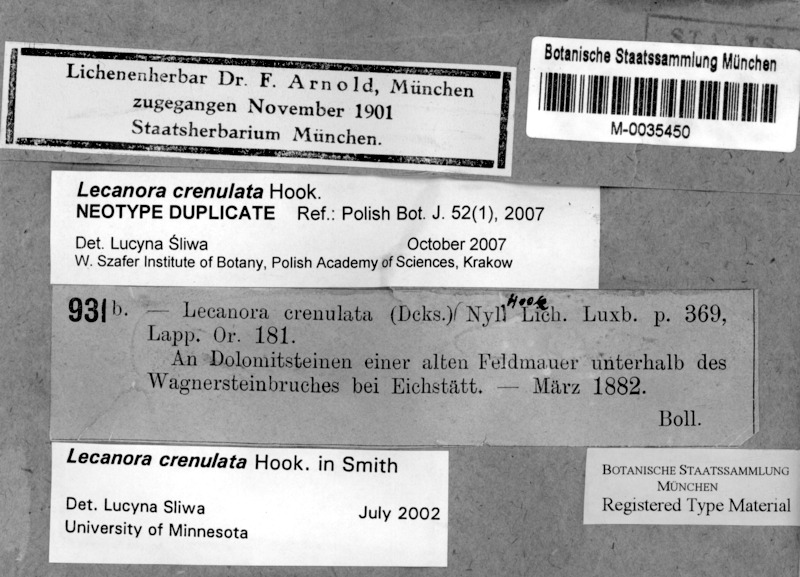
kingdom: Fungi
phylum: Ascomycota
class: Lecanoromycetes
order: Lecanorales
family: Lecanoraceae
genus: Myriolecis
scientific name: Myriolecis crenulata
